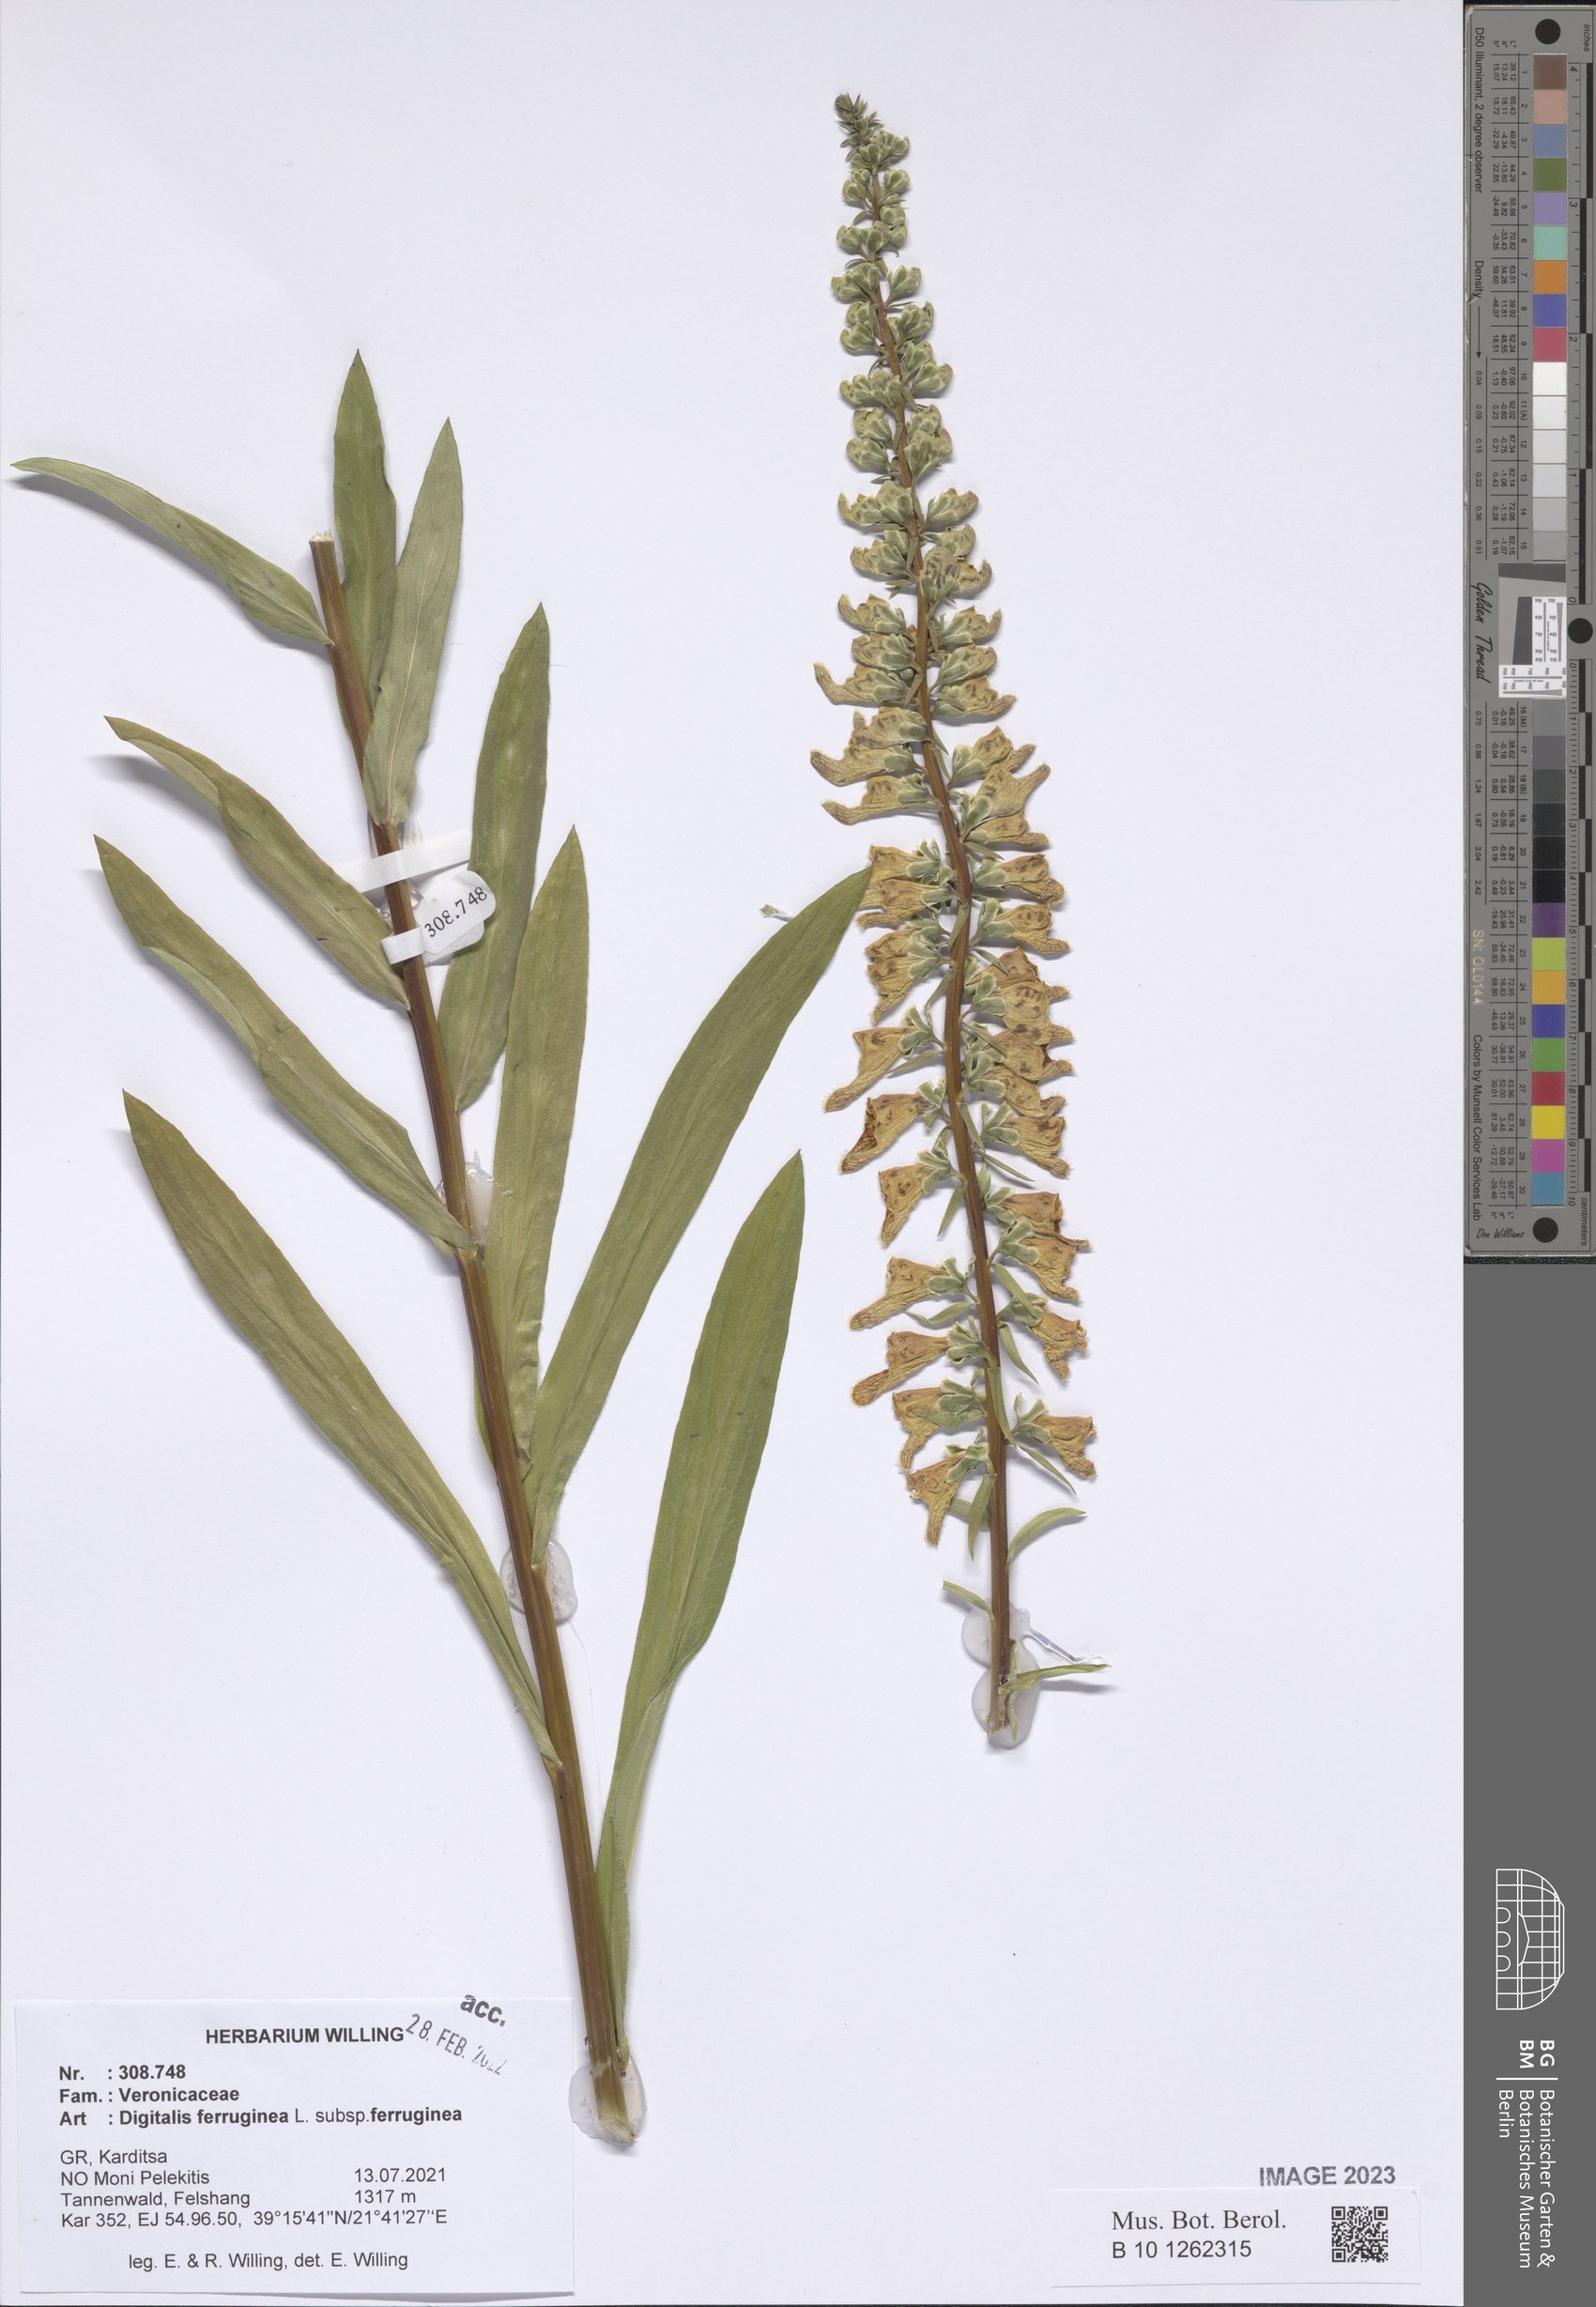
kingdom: Plantae
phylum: Tracheophyta
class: Magnoliopsida
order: Lamiales
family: Plantaginaceae
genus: Digitalis
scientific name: Digitalis ferruginea
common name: Rusty foxglove
